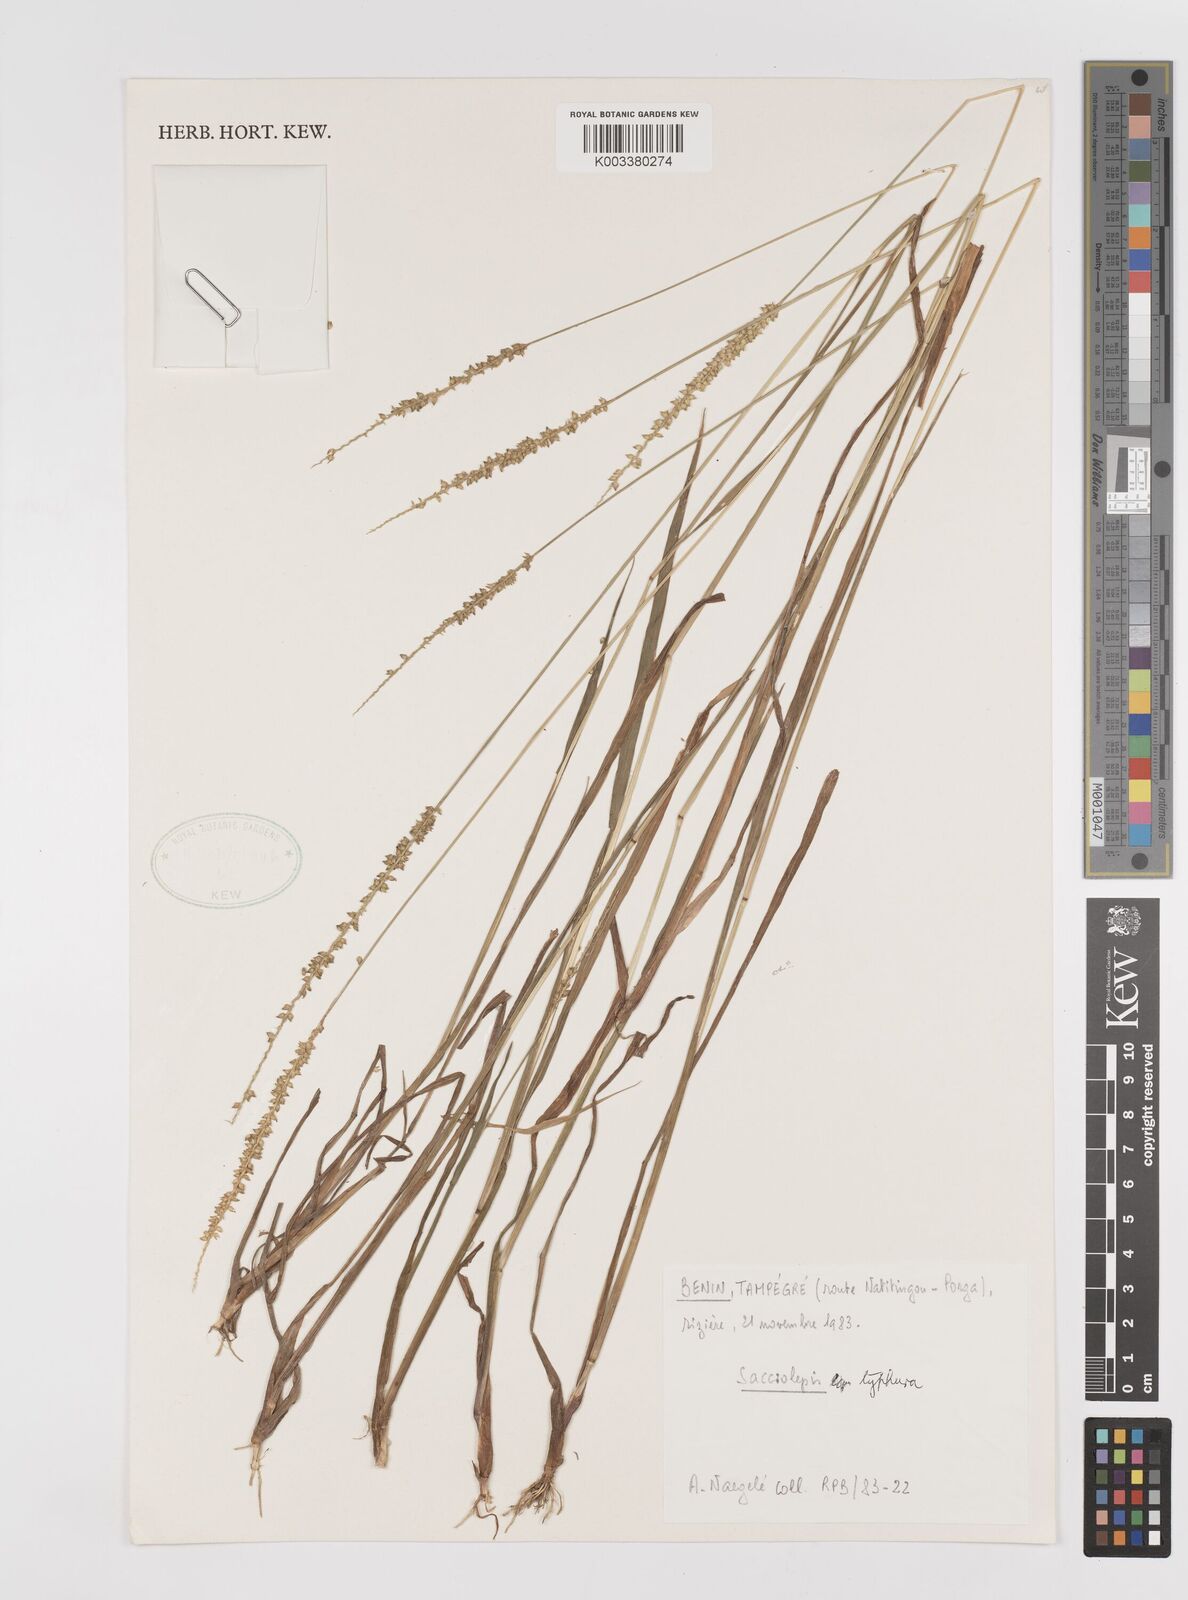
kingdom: Plantae
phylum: Tracheophyta
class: Liliopsida
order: Poales
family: Poaceae
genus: Sacciolepis
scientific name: Sacciolepis typhura
